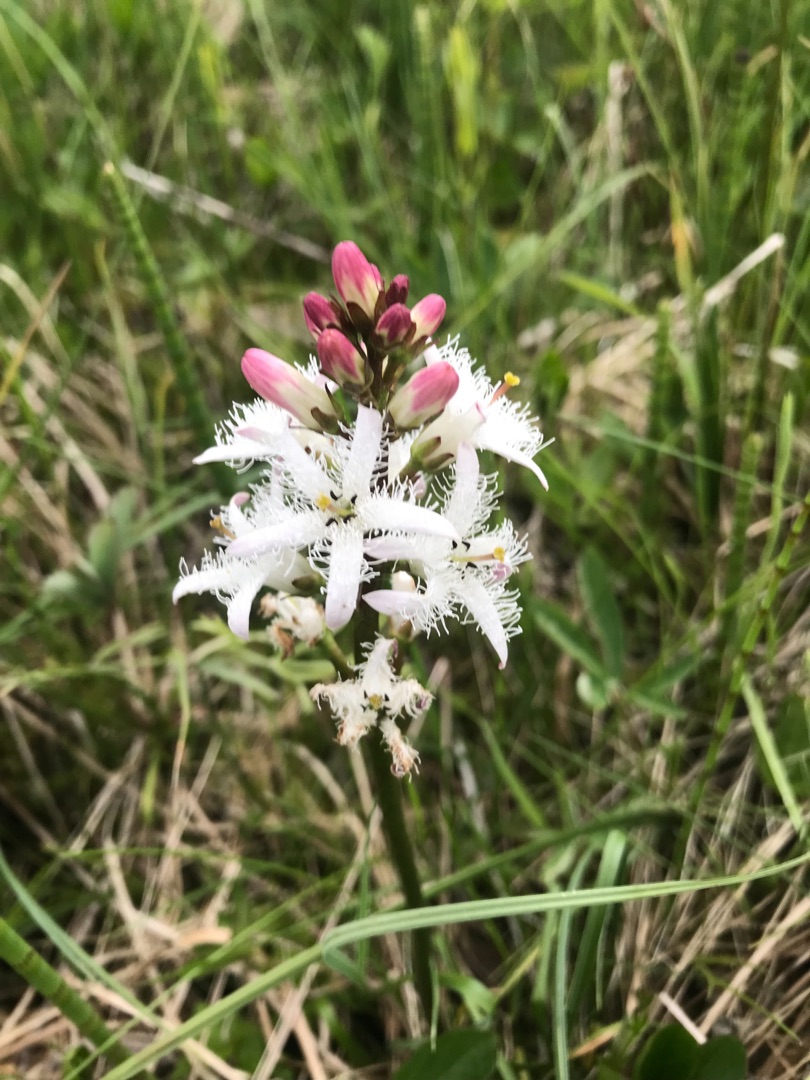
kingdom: Plantae
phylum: Tracheophyta
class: Magnoliopsida
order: Asterales
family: Menyanthaceae
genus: Menyanthes
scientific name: Menyanthes trifoliata
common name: Bukkeblad
